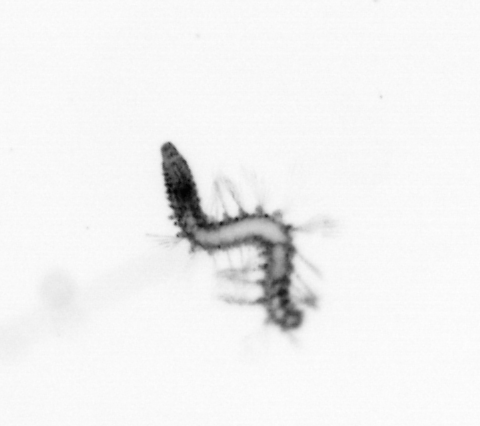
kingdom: Animalia
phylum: Annelida
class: Polychaeta
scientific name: Polychaeta
